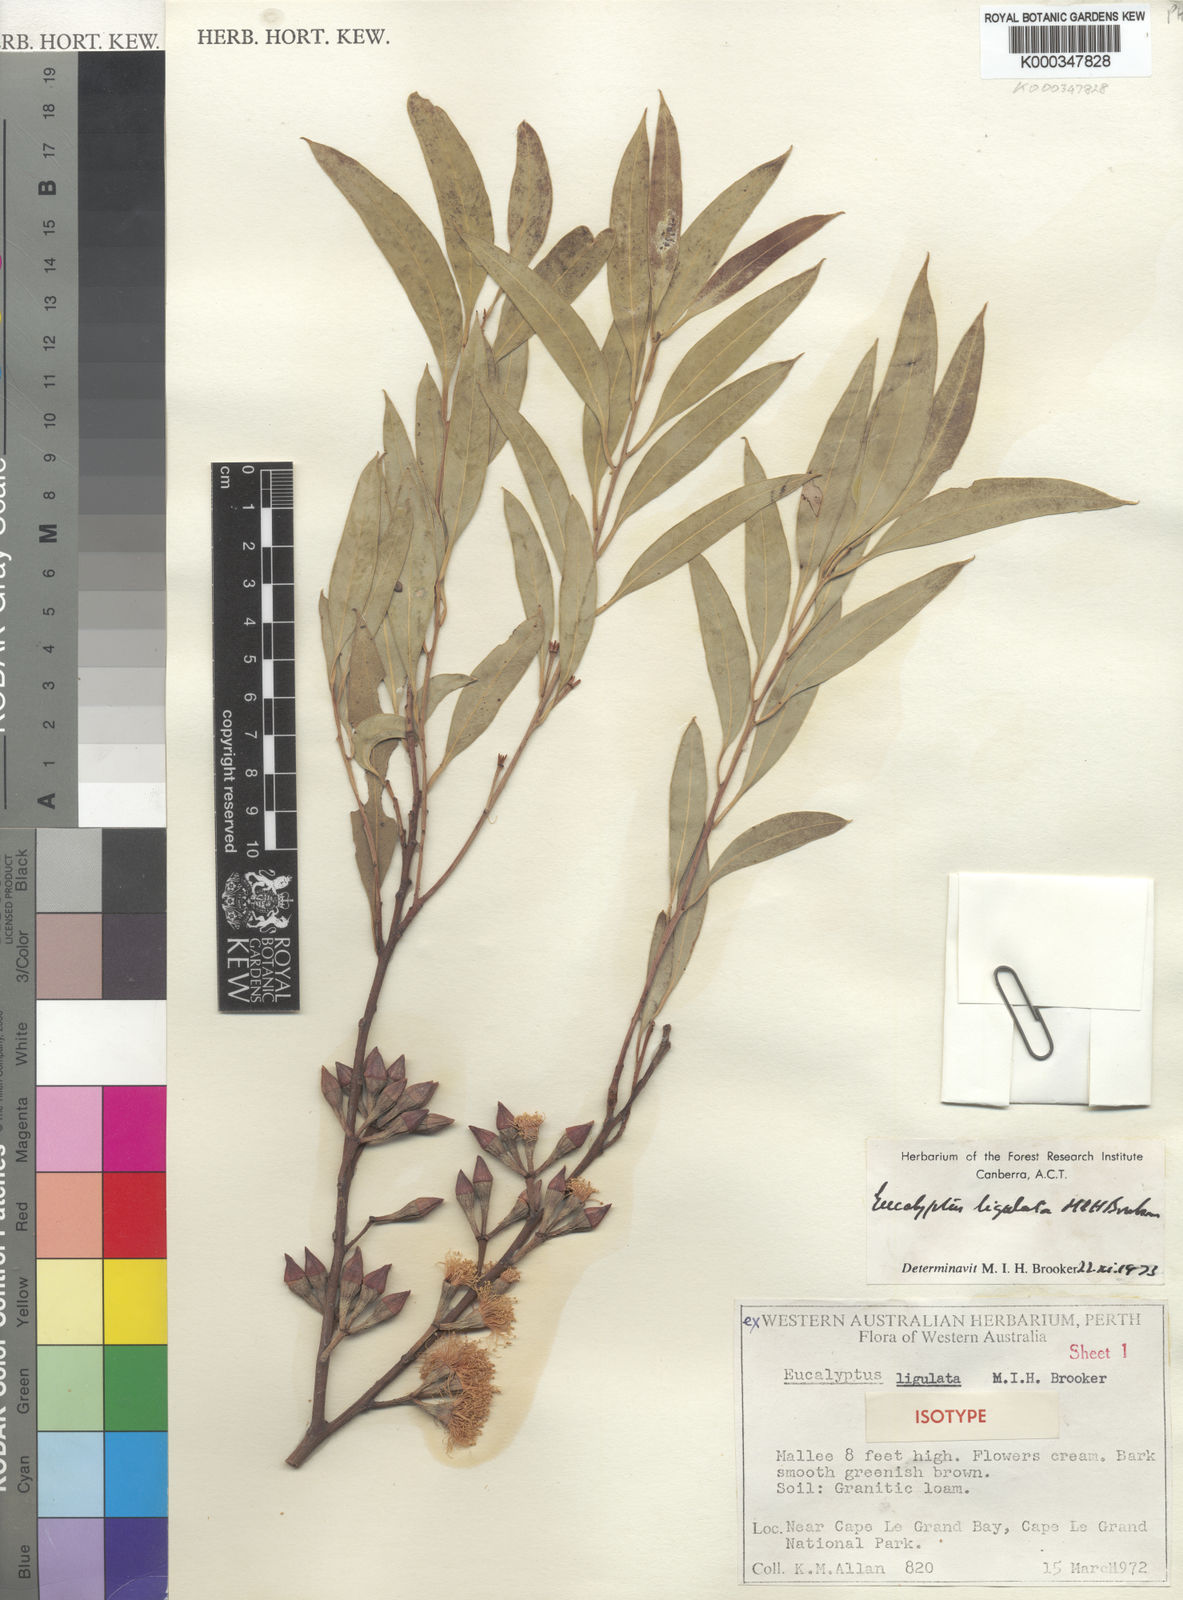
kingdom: Plantae
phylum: Tracheophyta
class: Magnoliopsida
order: Myrtales
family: Myrtaceae
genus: Eucalyptus
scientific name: Eucalyptus ligulata
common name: Lucky bay mallee
